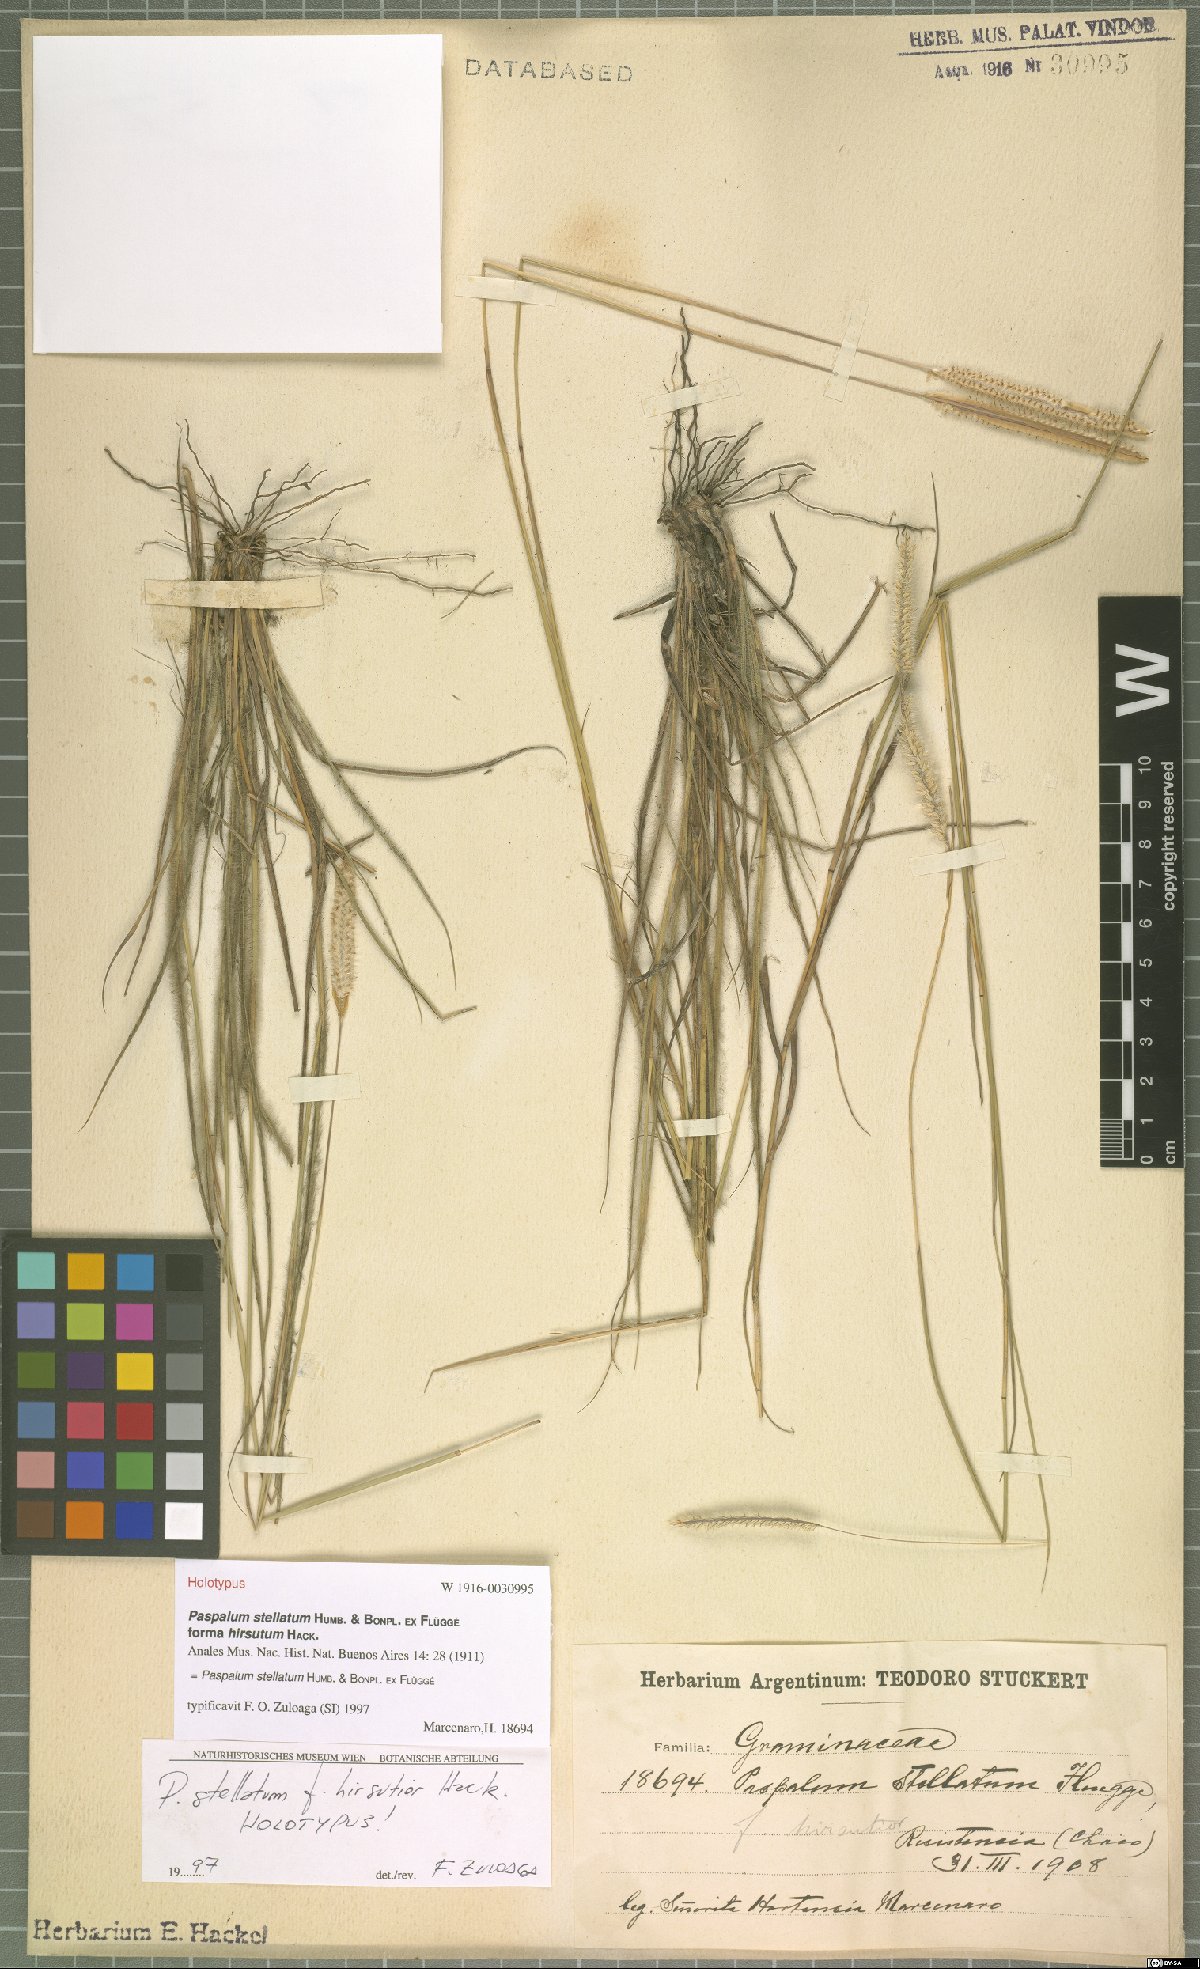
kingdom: Plantae
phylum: Tracheophyta
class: Liliopsida
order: Poales
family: Poaceae
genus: Paspalum
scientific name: Paspalum stellatum
